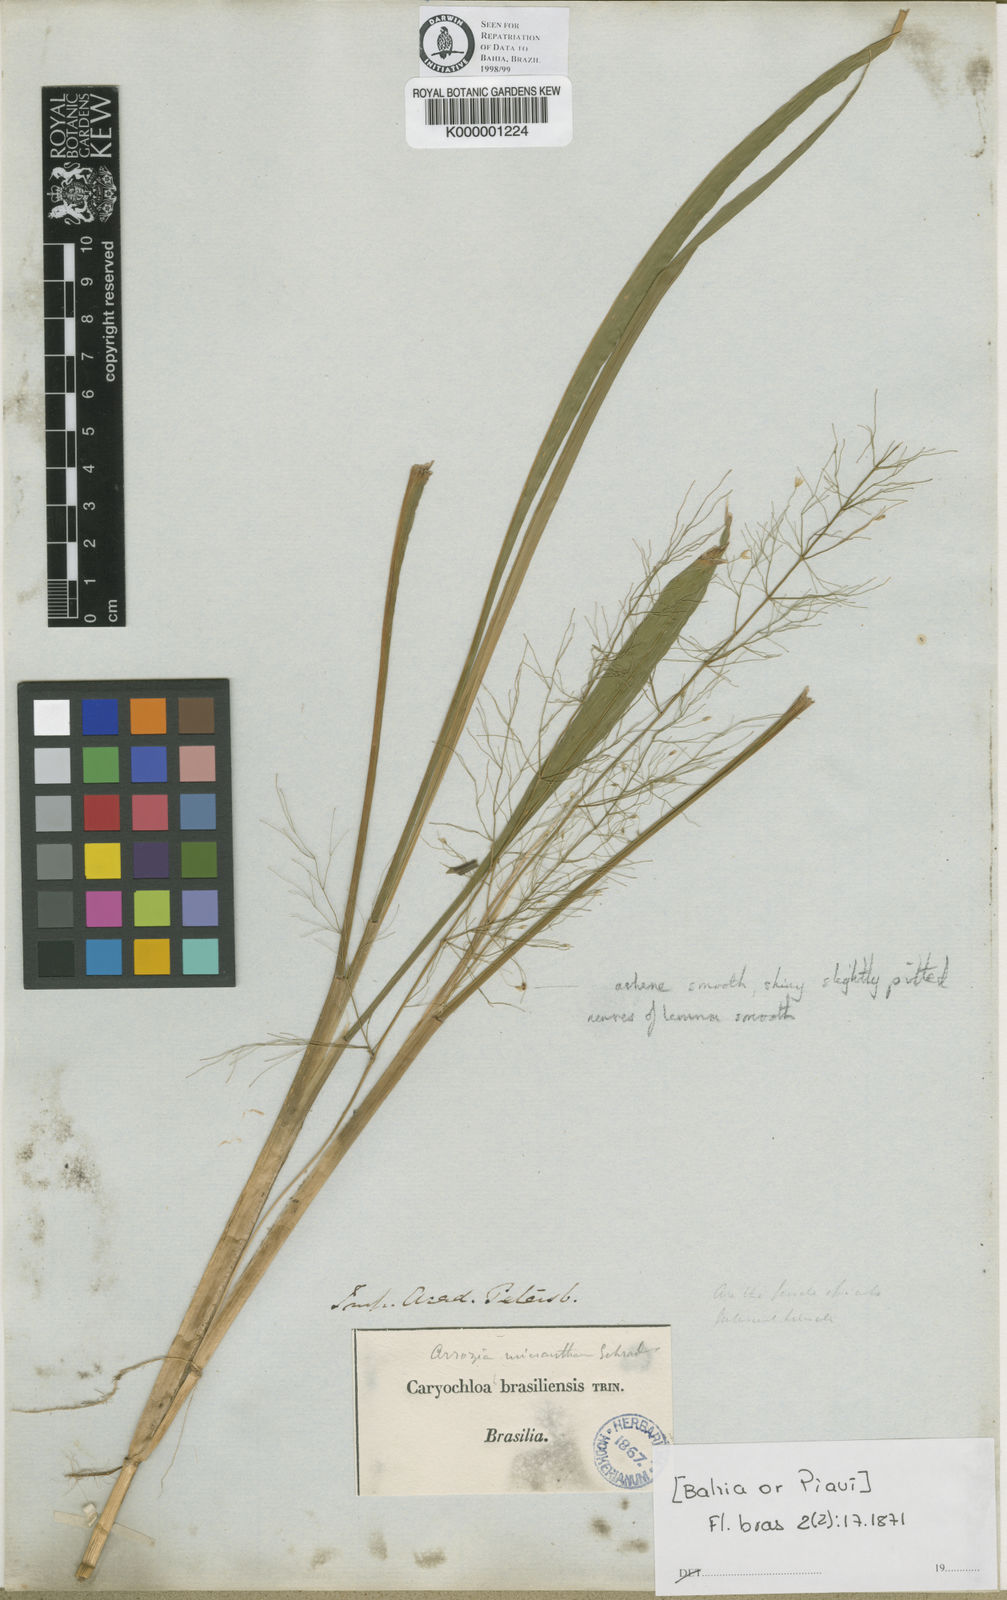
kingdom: Plantae
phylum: Tracheophyta
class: Liliopsida
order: Poales
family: Poaceae
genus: Luziola
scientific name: Luziola brasiliensis
